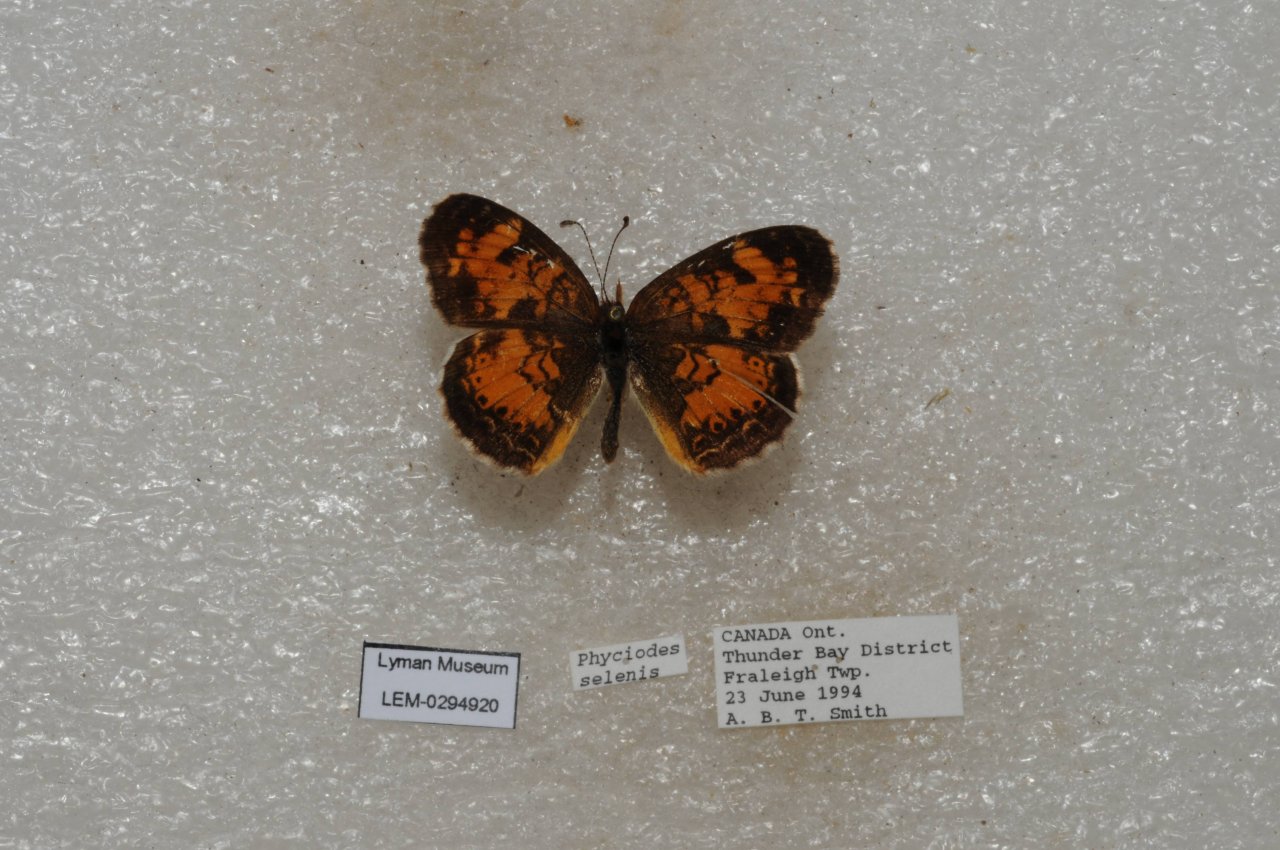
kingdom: Animalia
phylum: Arthropoda
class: Insecta
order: Lepidoptera
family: Nymphalidae
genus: Phyciodes
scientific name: Phyciodes tharos
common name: Northern Crescent
